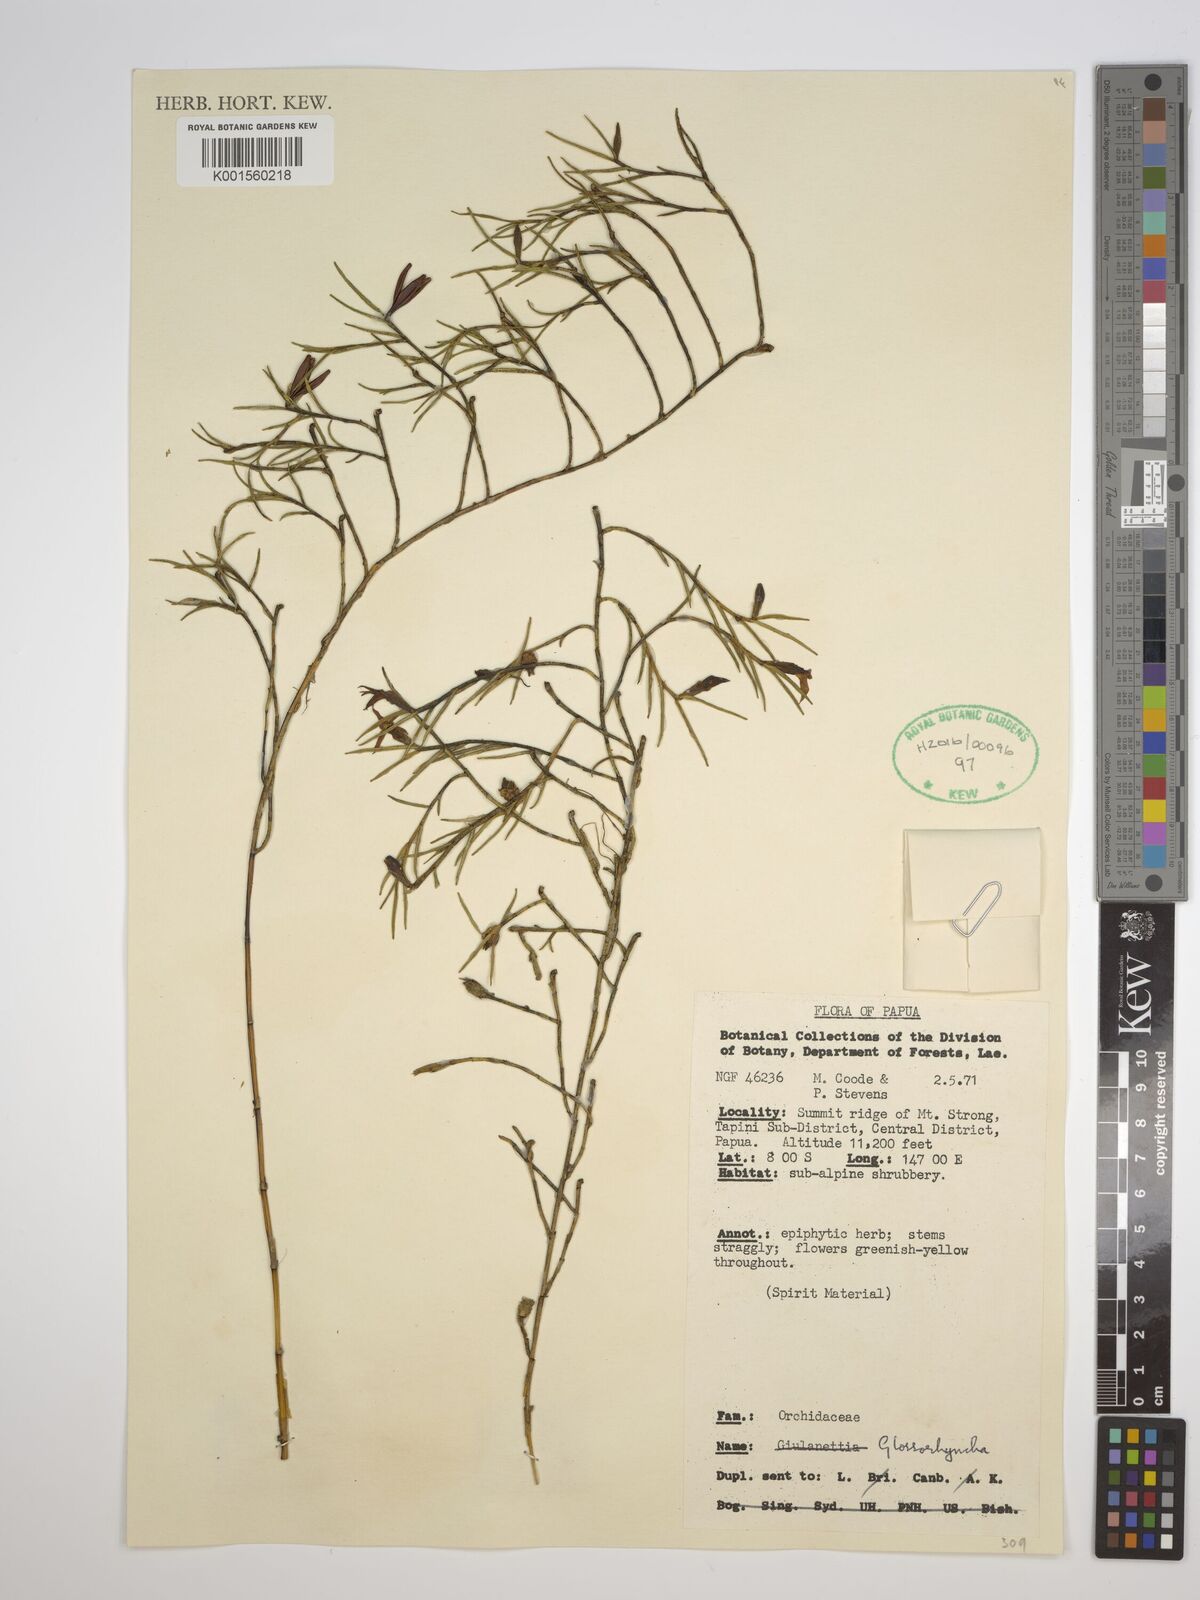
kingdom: Plantae
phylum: Tracheophyta
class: Liliopsida
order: Asparagales
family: Orchidaceae
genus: Glomera
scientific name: Glomera
